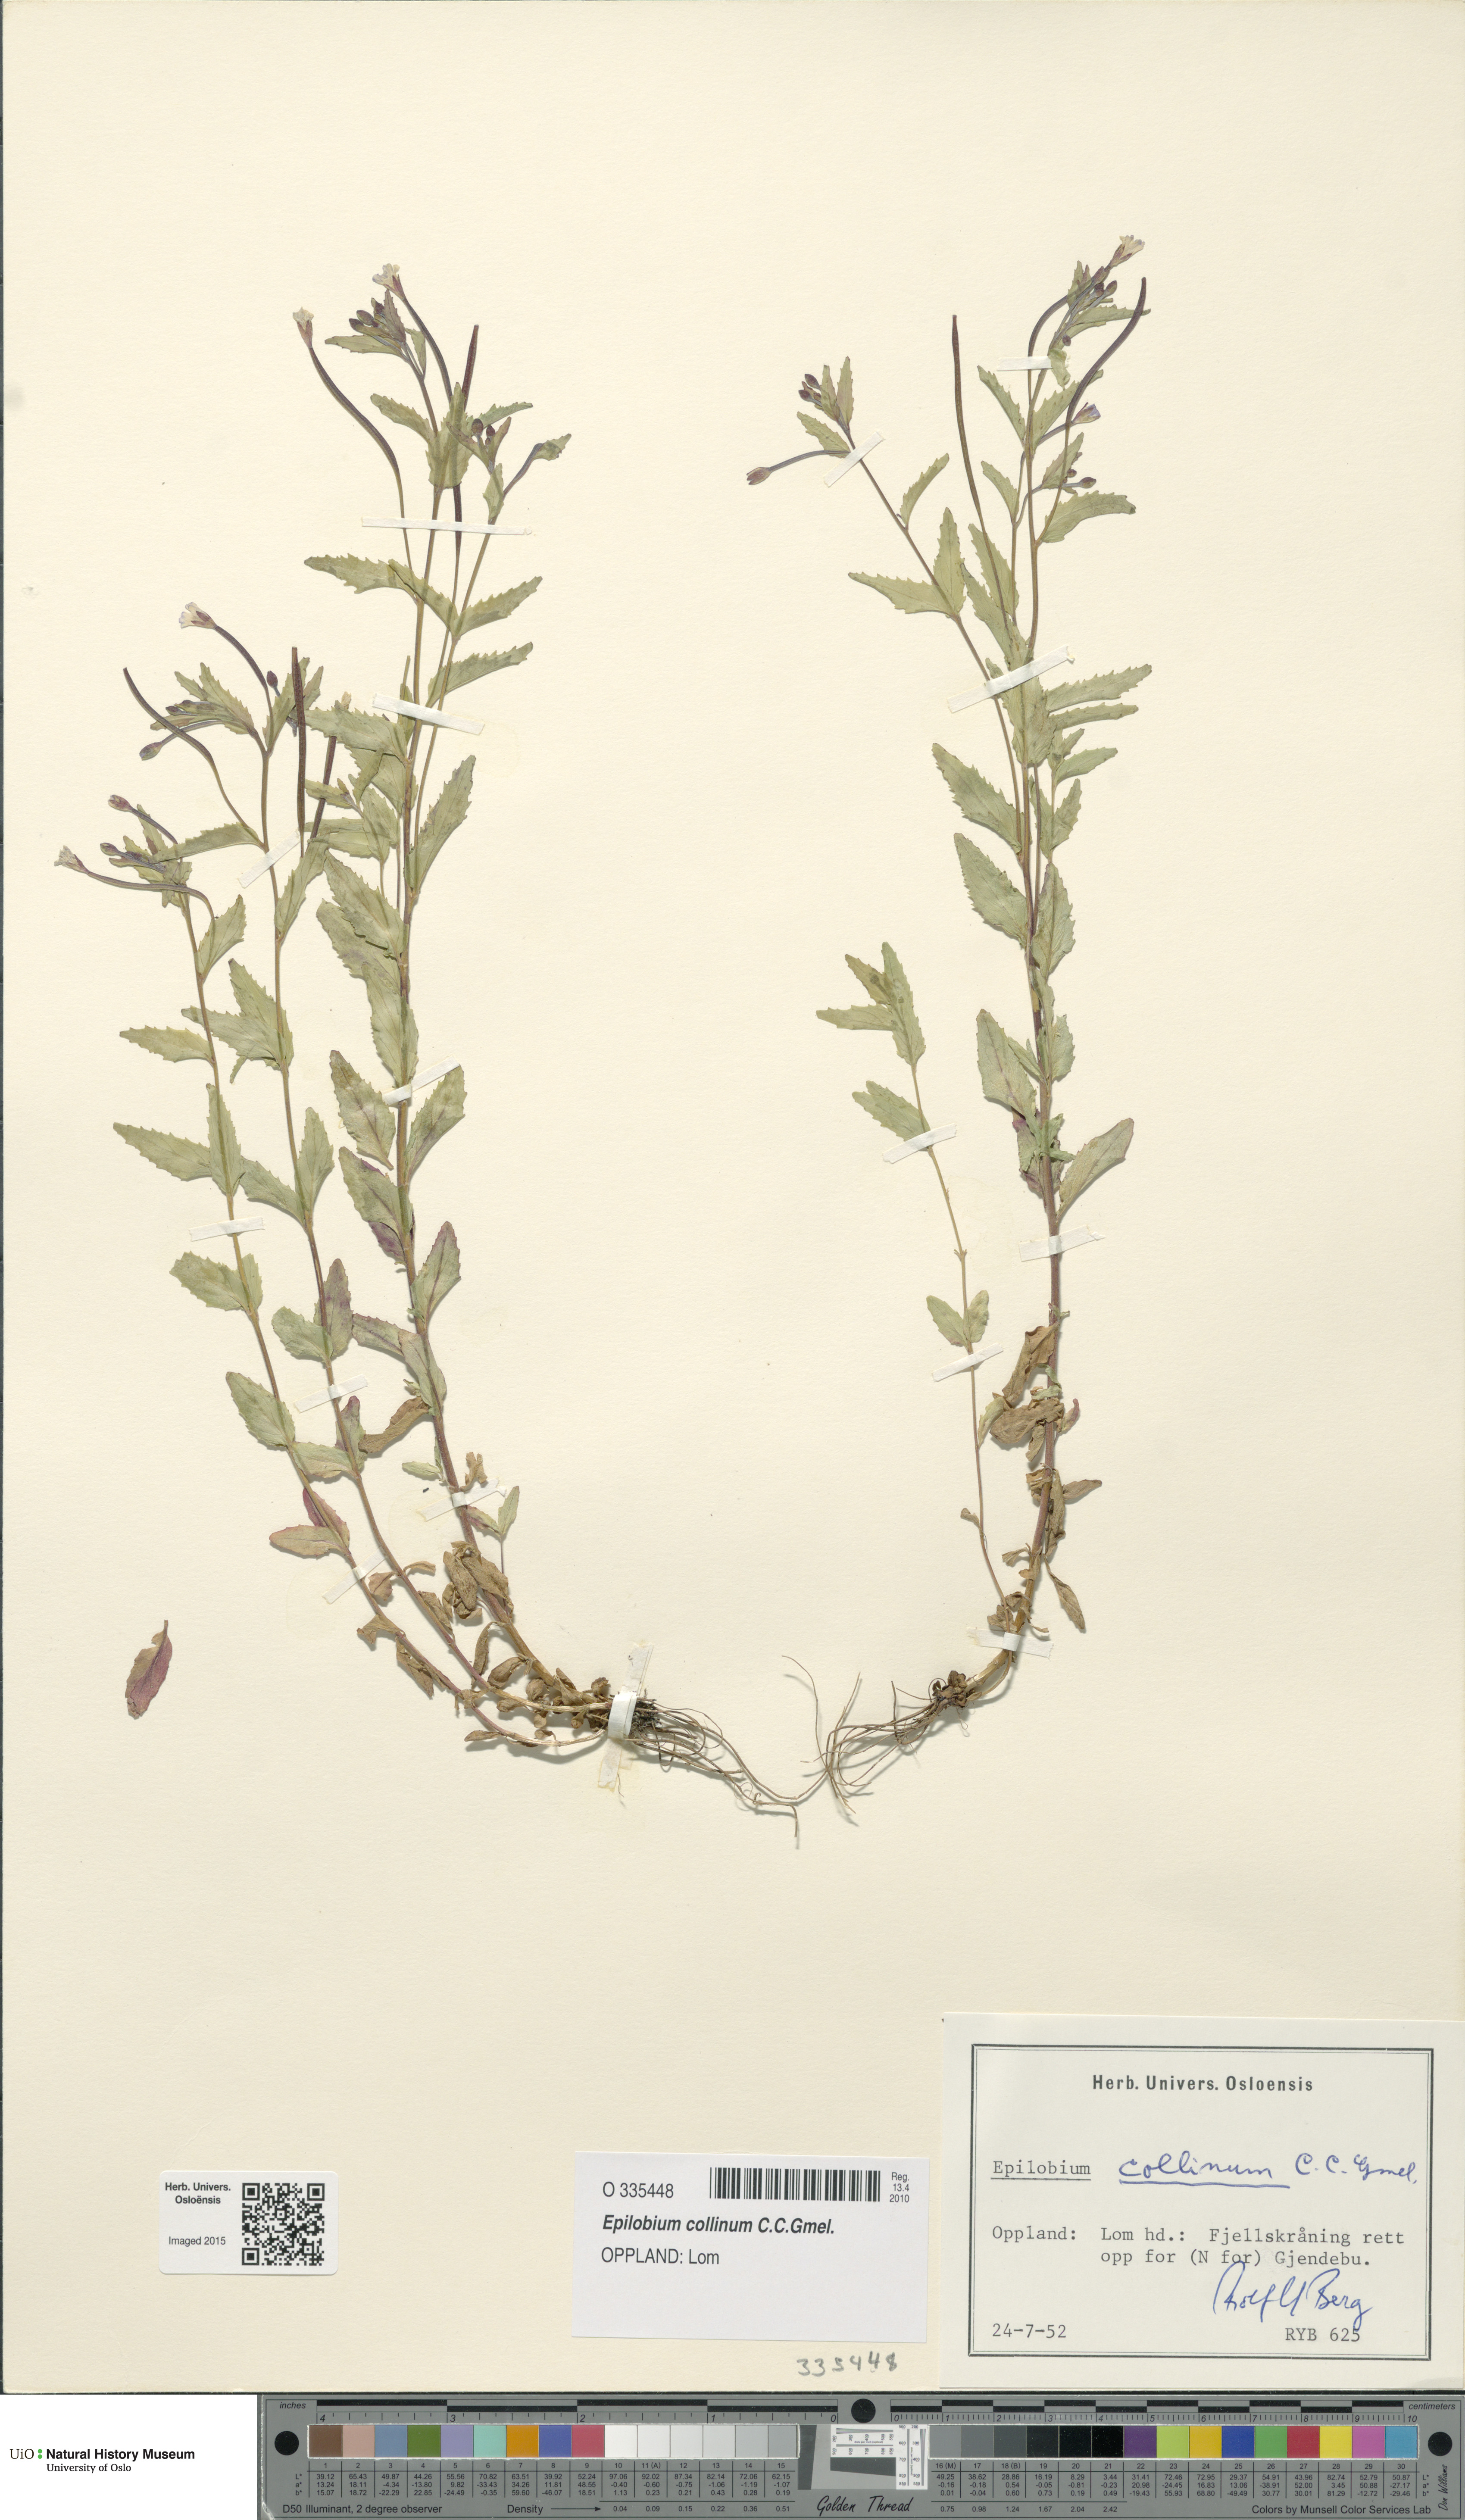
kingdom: Plantae
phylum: Tracheophyta
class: Magnoliopsida
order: Myrtales
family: Onagraceae
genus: Epilobium
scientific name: Epilobium collinum
